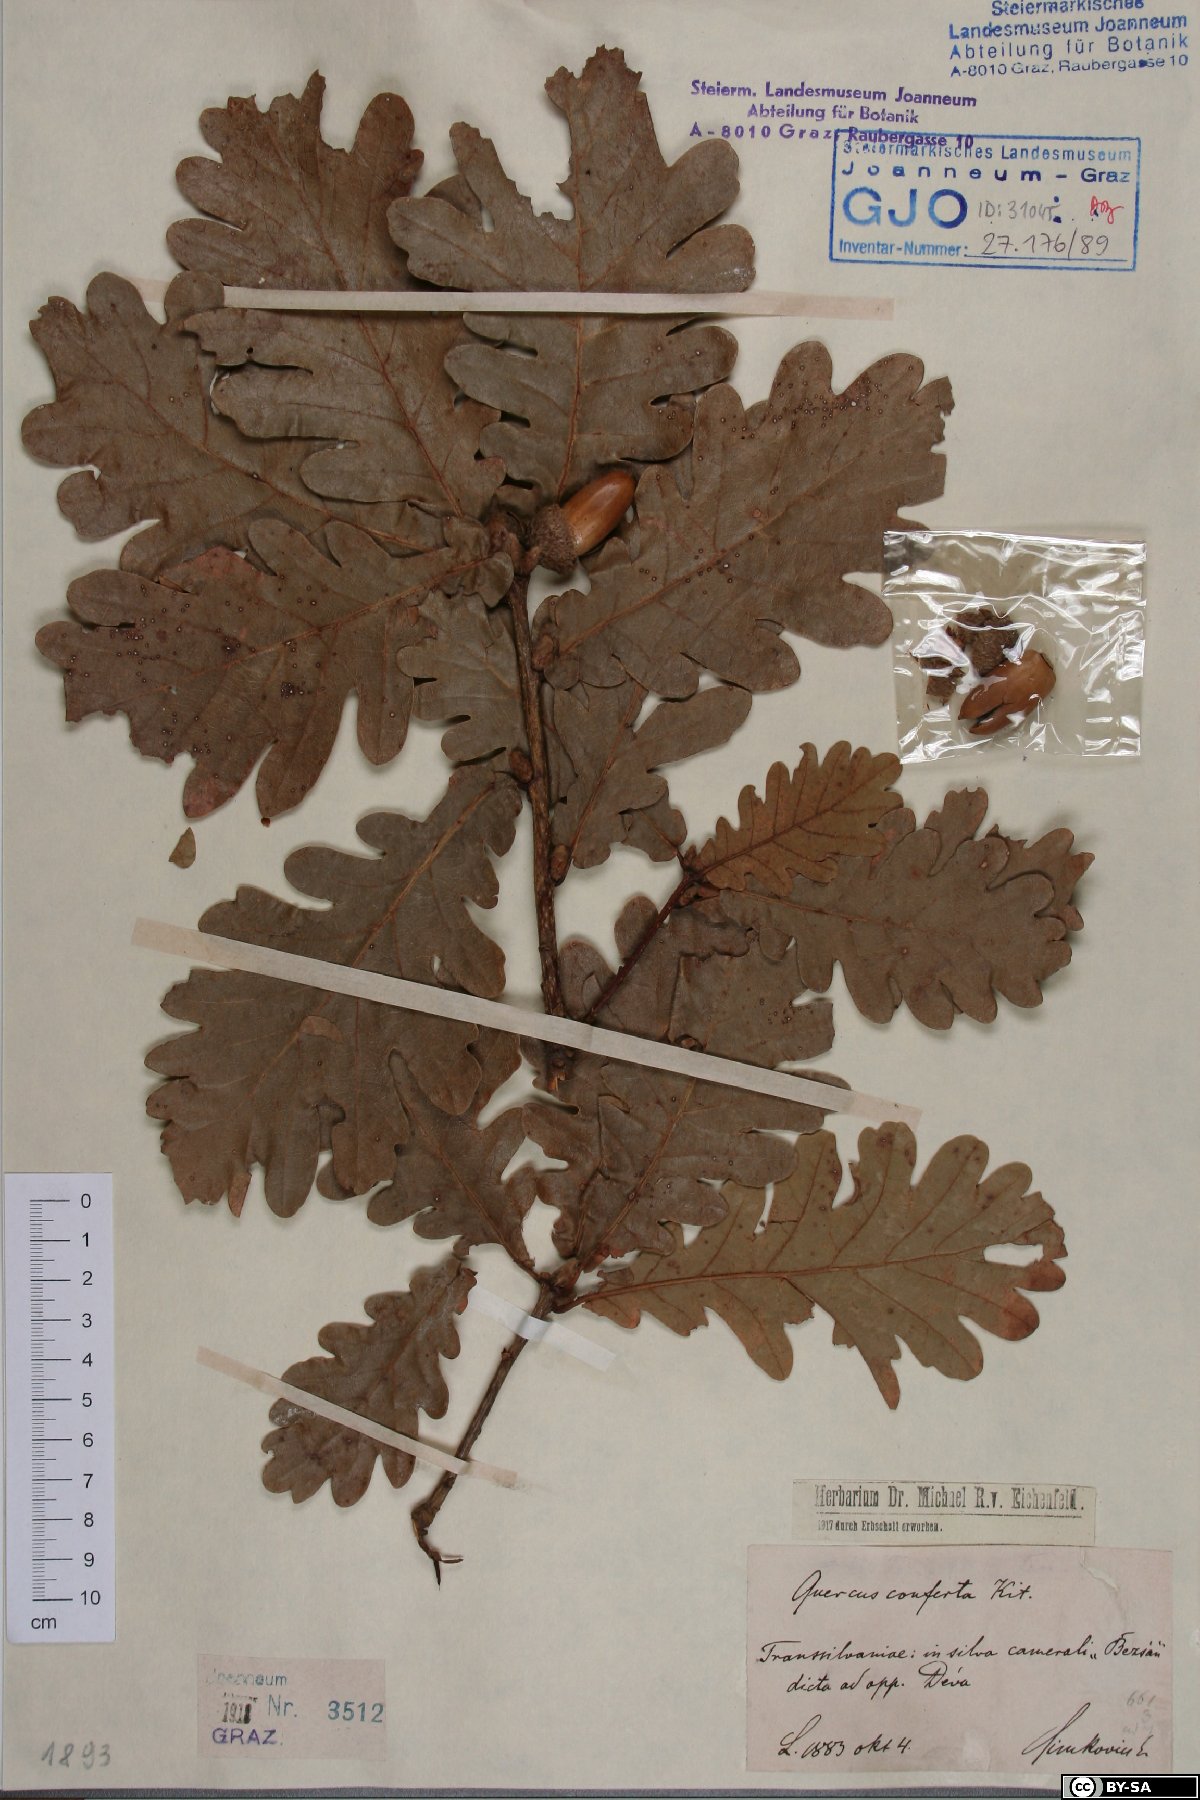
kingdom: Plantae
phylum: Tracheophyta
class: Magnoliopsida
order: Fagales
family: Fagaceae
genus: Quercus
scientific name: Quercus conferta
